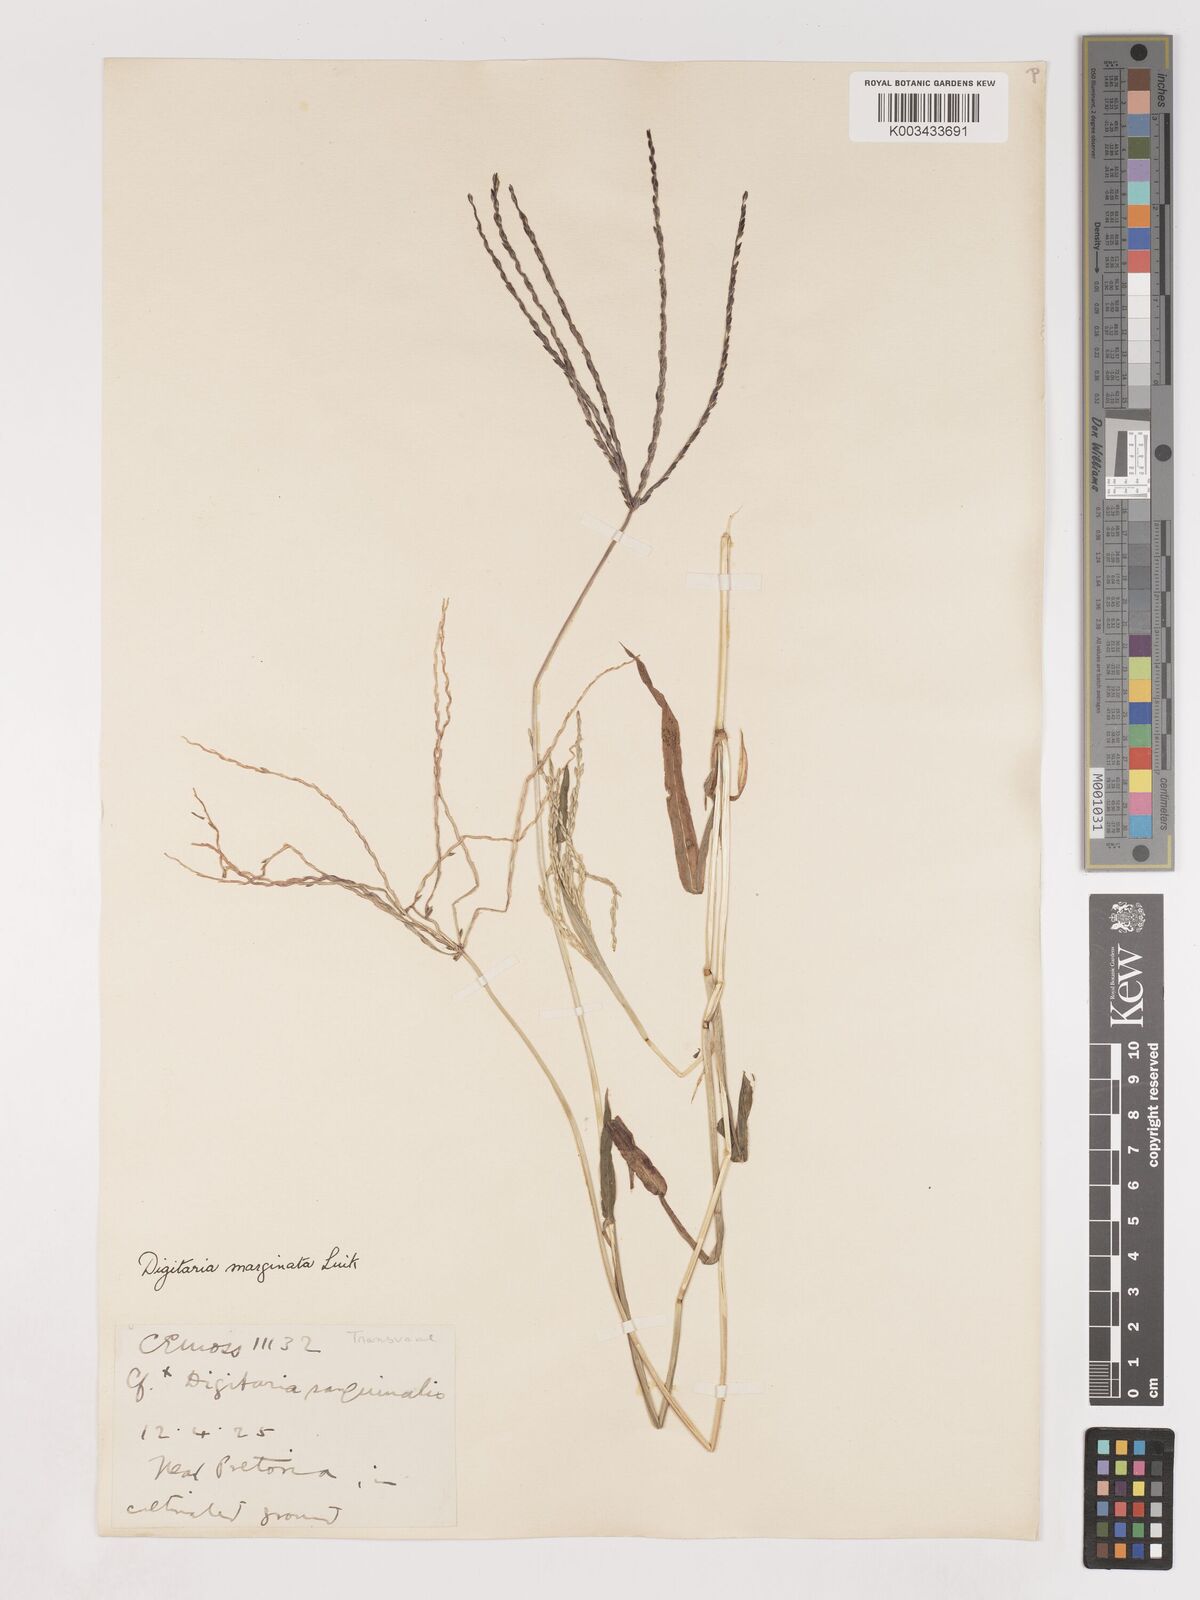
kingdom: Plantae
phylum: Tracheophyta
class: Liliopsida
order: Poales
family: Poaceae
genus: Digitaria
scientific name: Digitaria sanguinalis
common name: Hairy crabgrass
